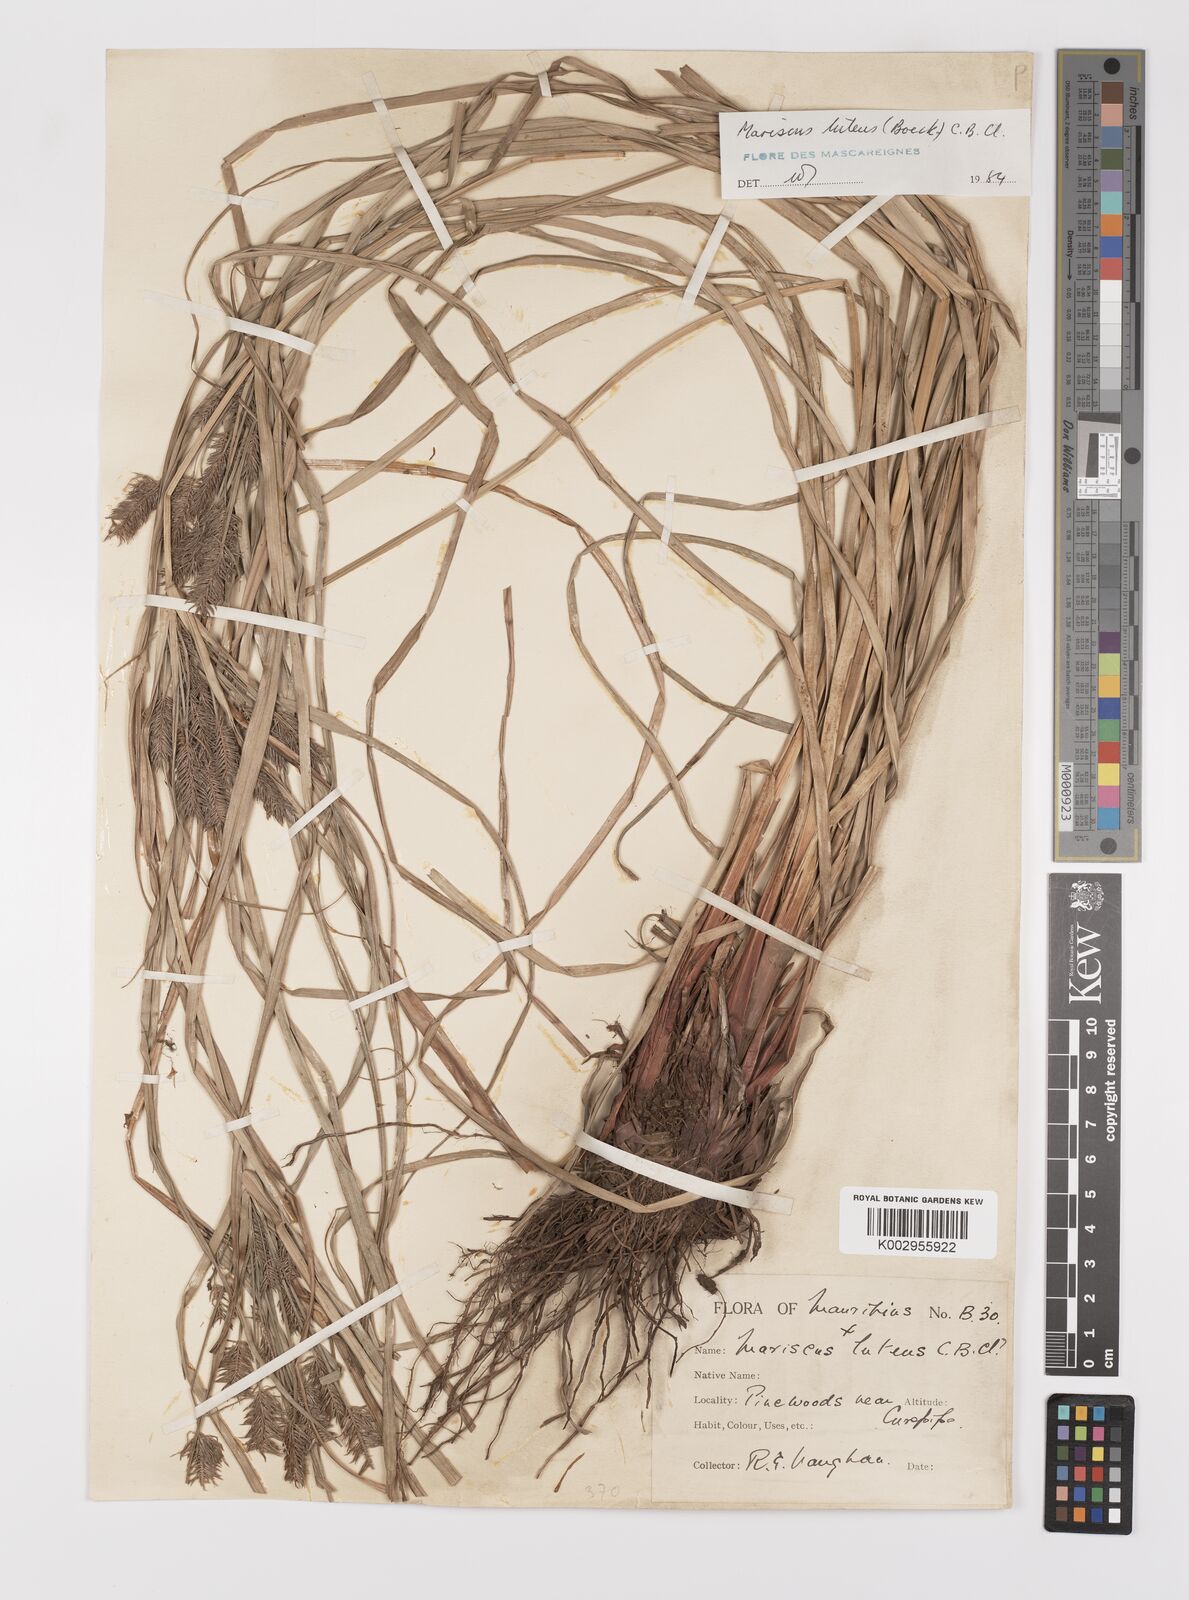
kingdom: Plantae
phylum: Tracheophyta
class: Liliopsida
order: Poales
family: Cyperaceae
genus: Cyperus
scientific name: Cyperus luteus
